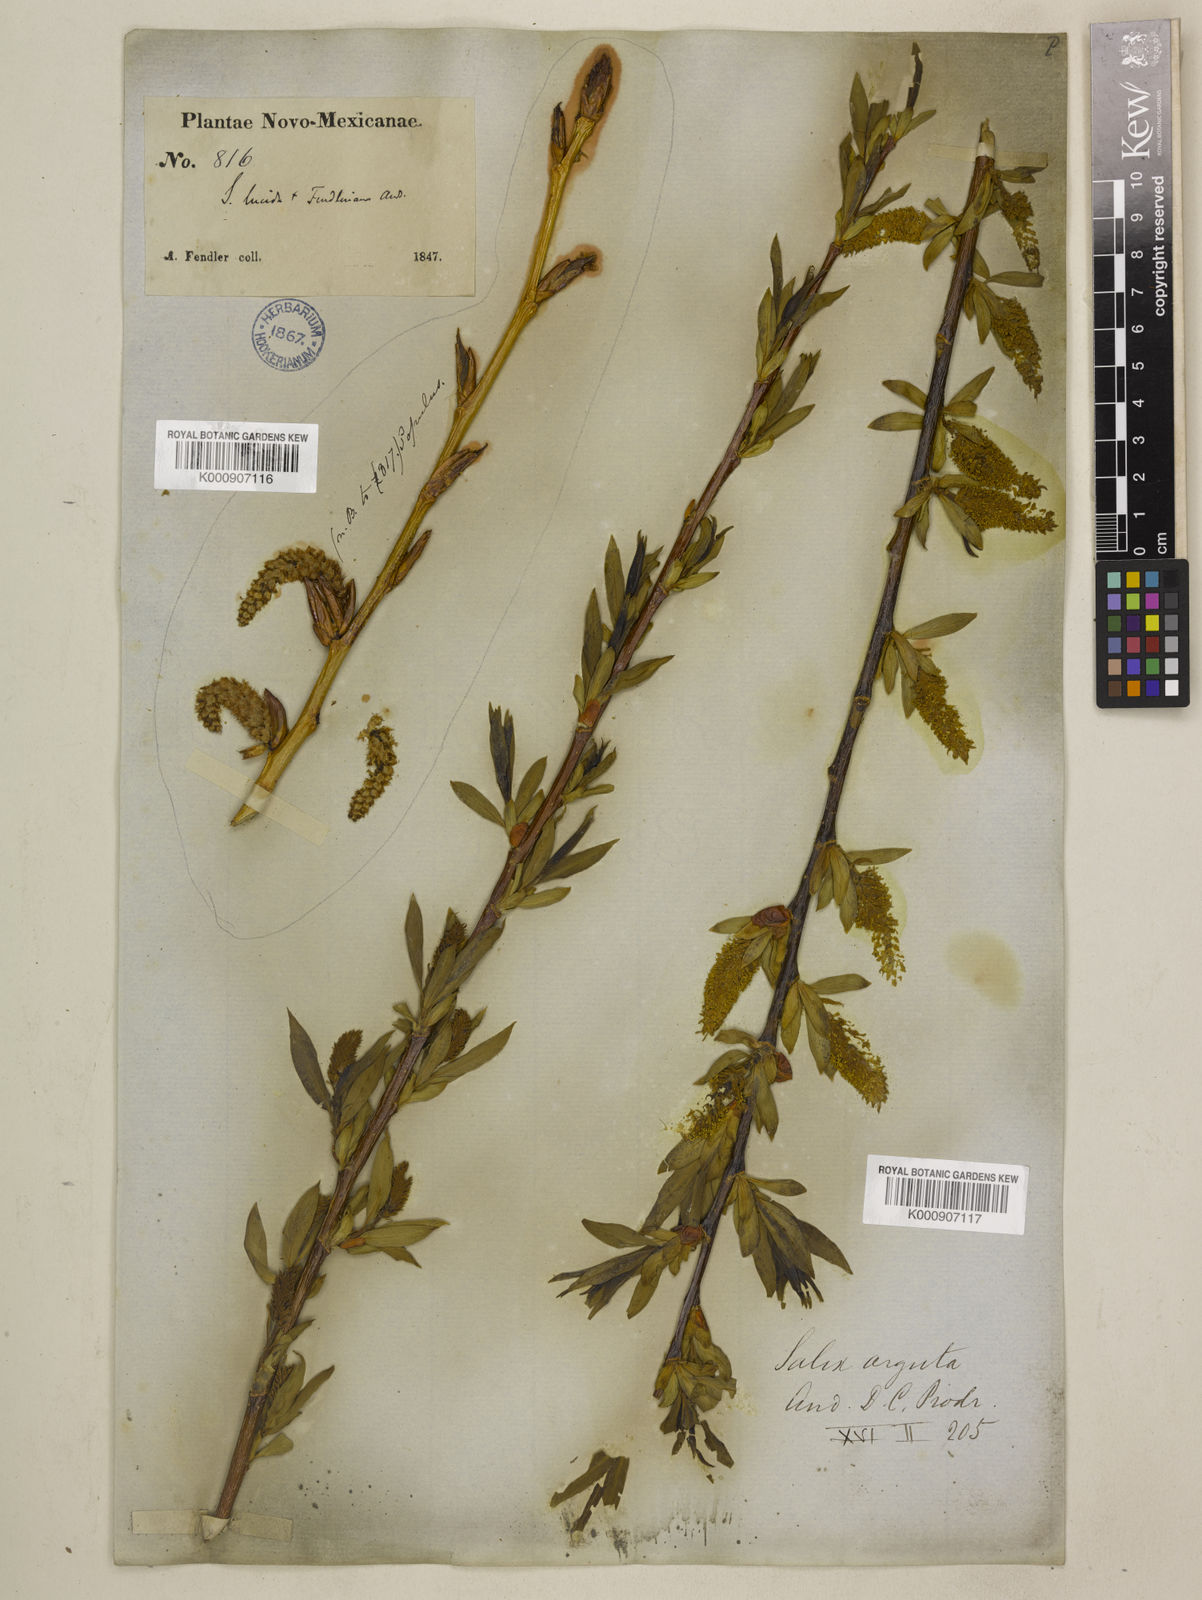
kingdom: Plantae
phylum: Tracheophyta
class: Magnoliopsida
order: Malpighiales
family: Salicaceae
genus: Salix
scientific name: Salix
